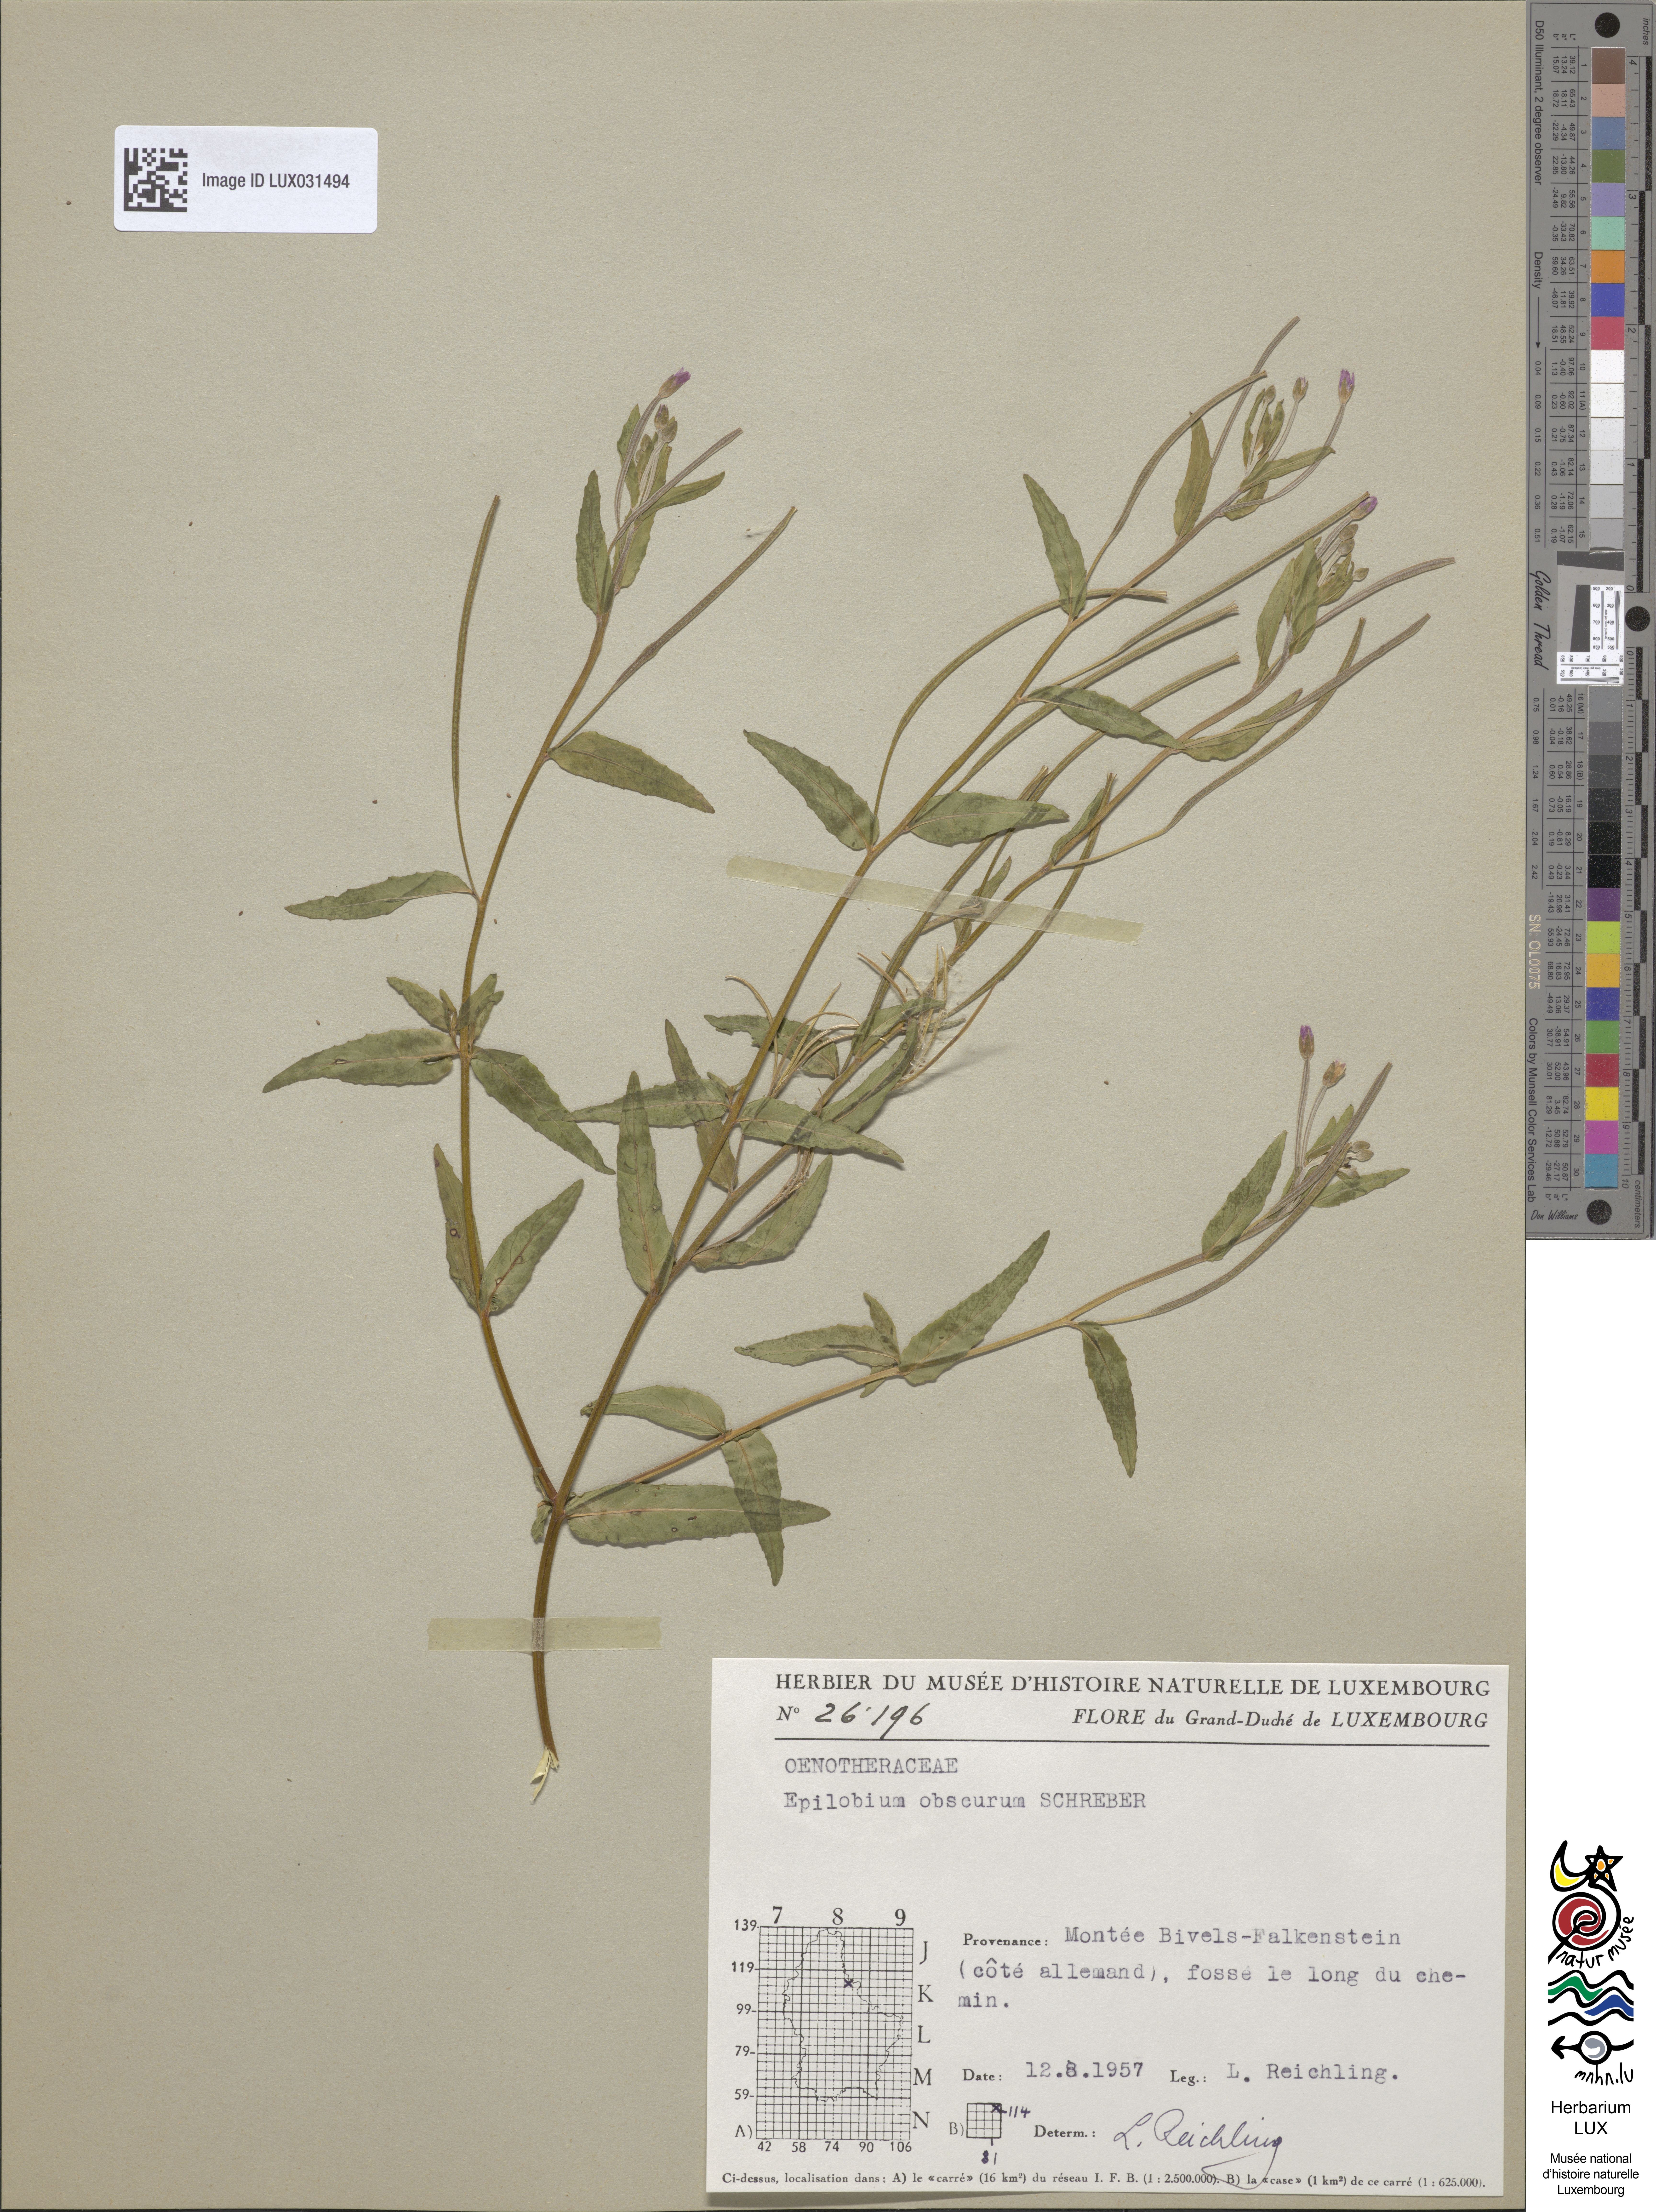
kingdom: Plantae
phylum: Tracheophyta
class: Magnoliopsida
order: Myrtales
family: Onagraceae
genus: Epilobium
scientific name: Epilobium obscurum
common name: Short-fruited willowherb
